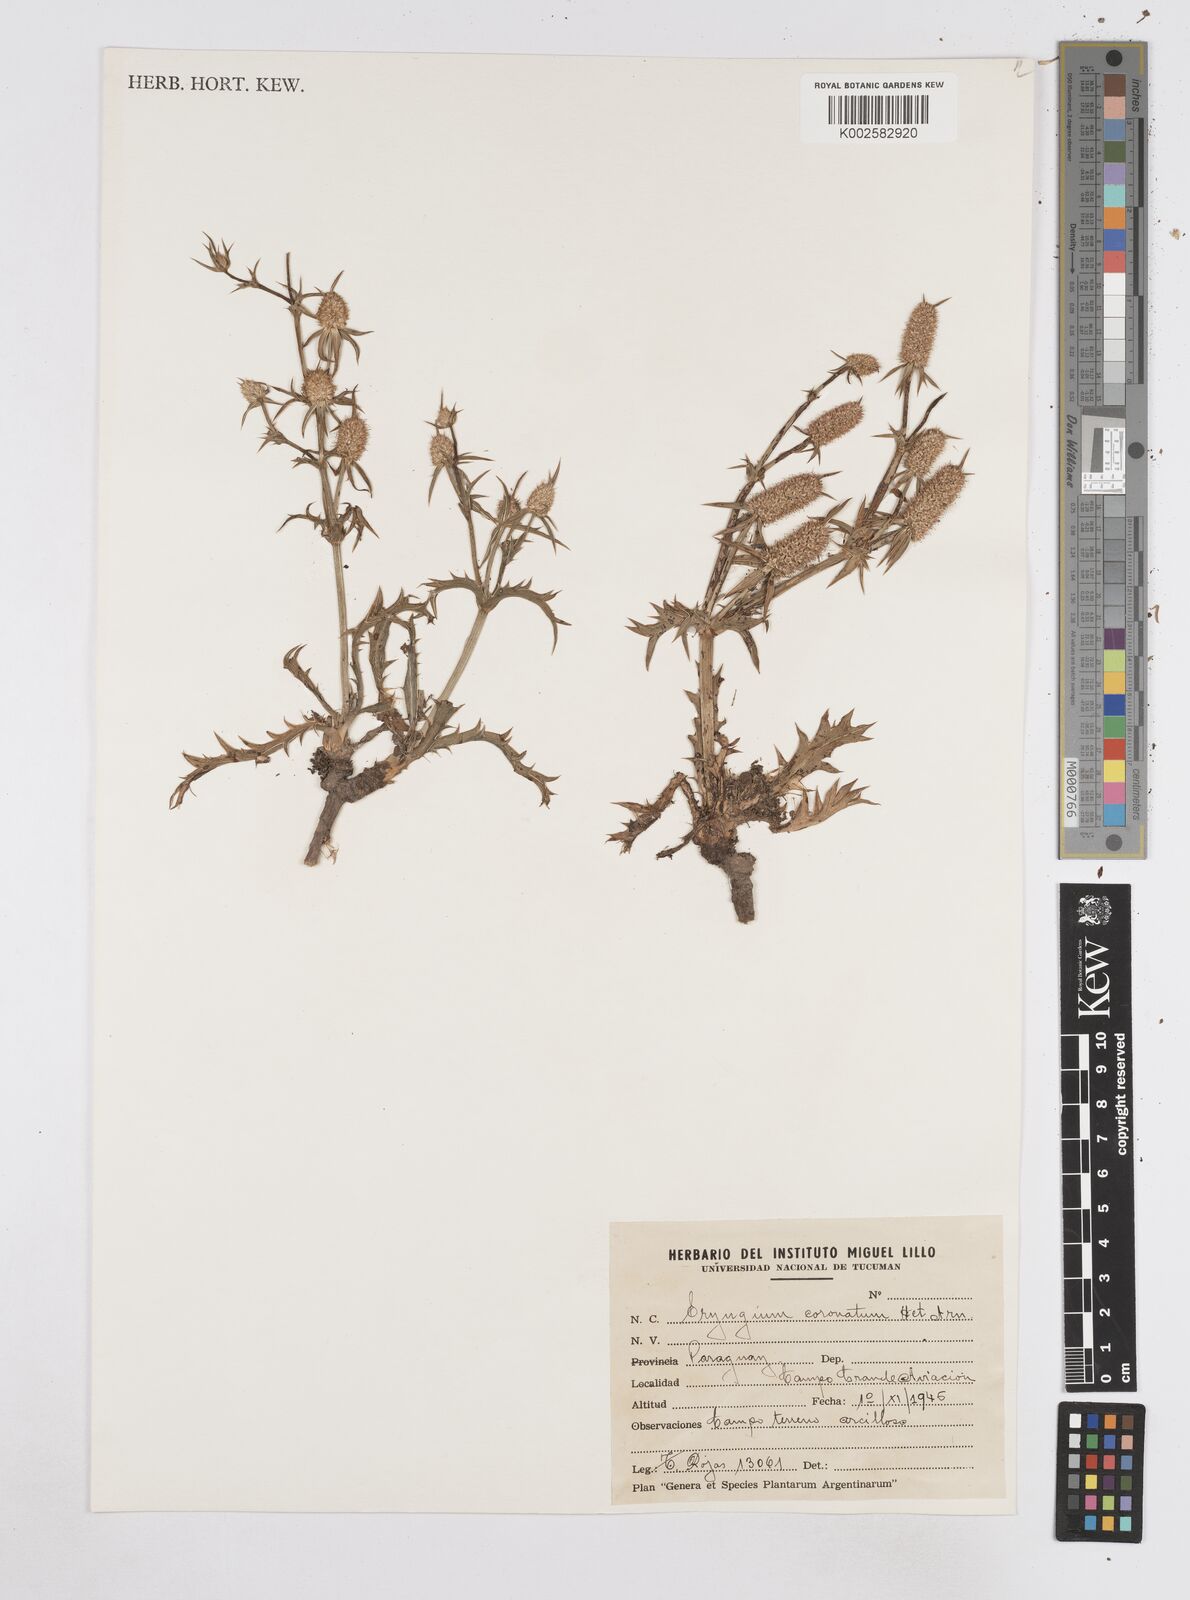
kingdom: Plantae
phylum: Tracheophyta
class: Magnoliopsida
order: Apiales
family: Apiaceae
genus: Eryngium
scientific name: Eryngium coronatum
